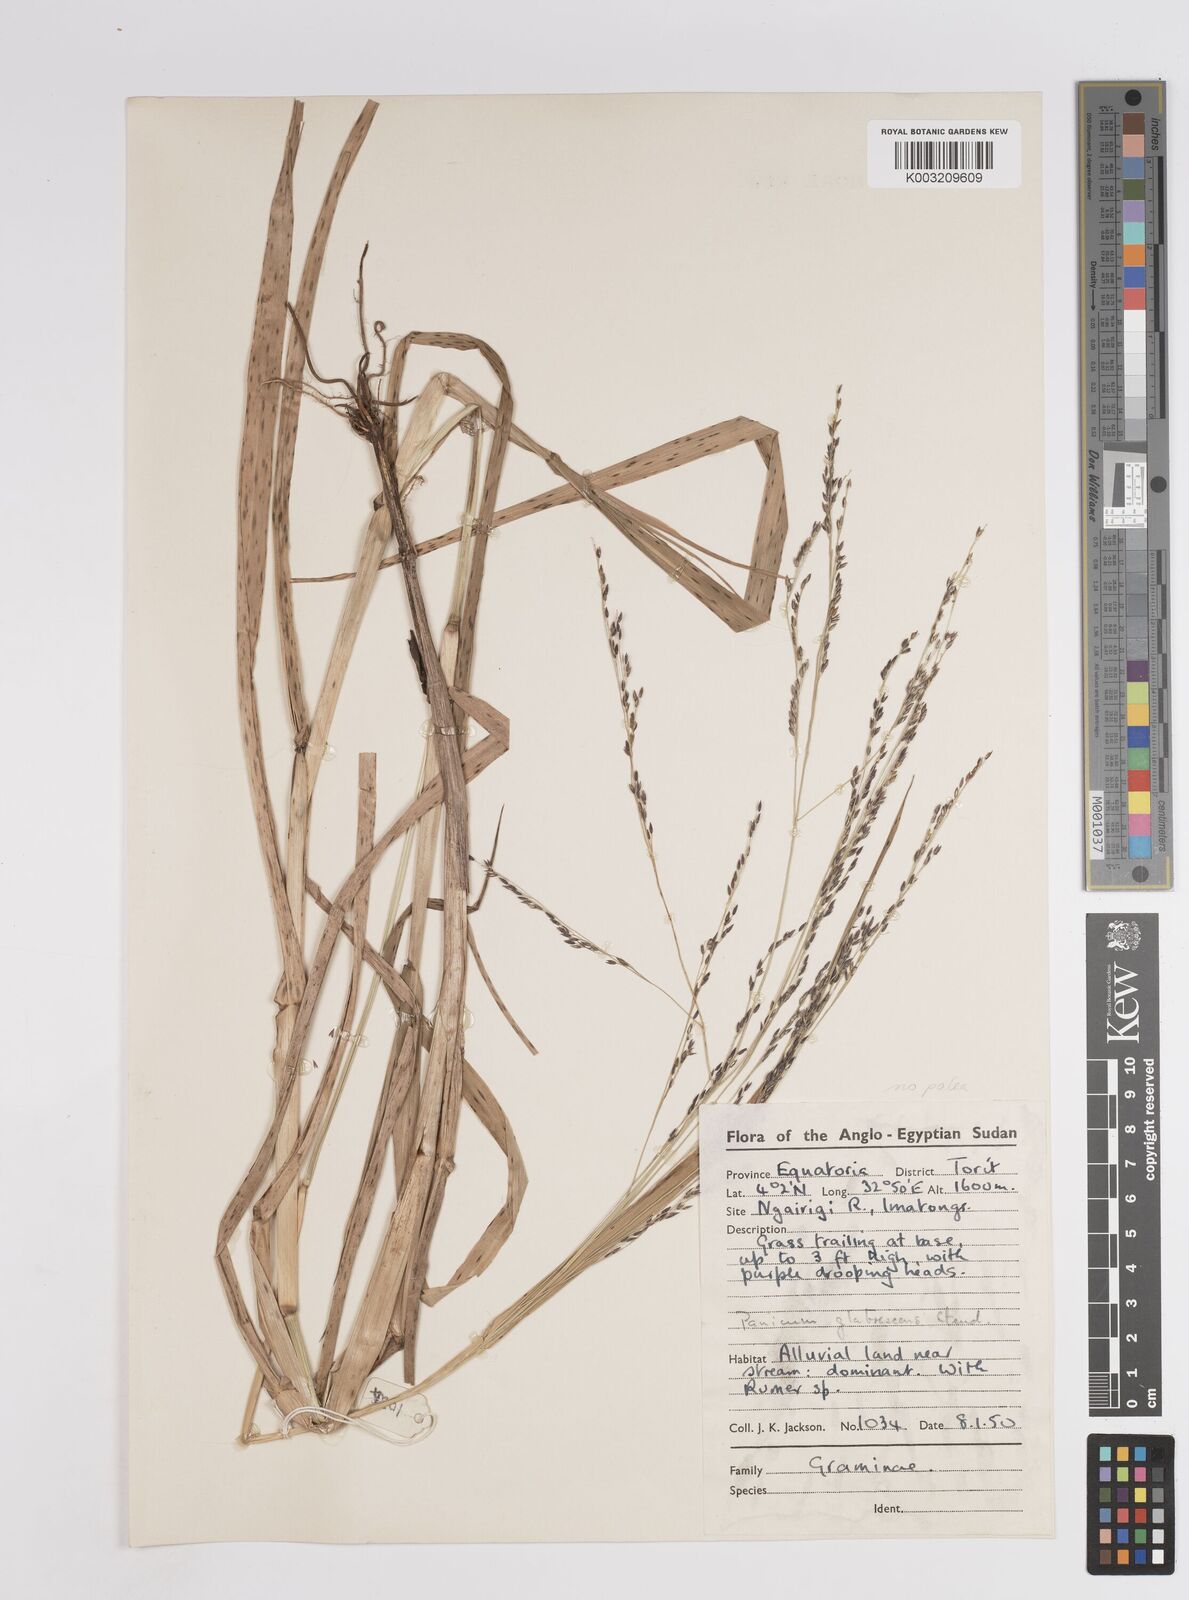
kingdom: Plantae
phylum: Tracheophyta
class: Liliopsida
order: Poales
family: Poaceae
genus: Panicum
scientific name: Panicum subalbidum
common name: Elbow buffalo grass
